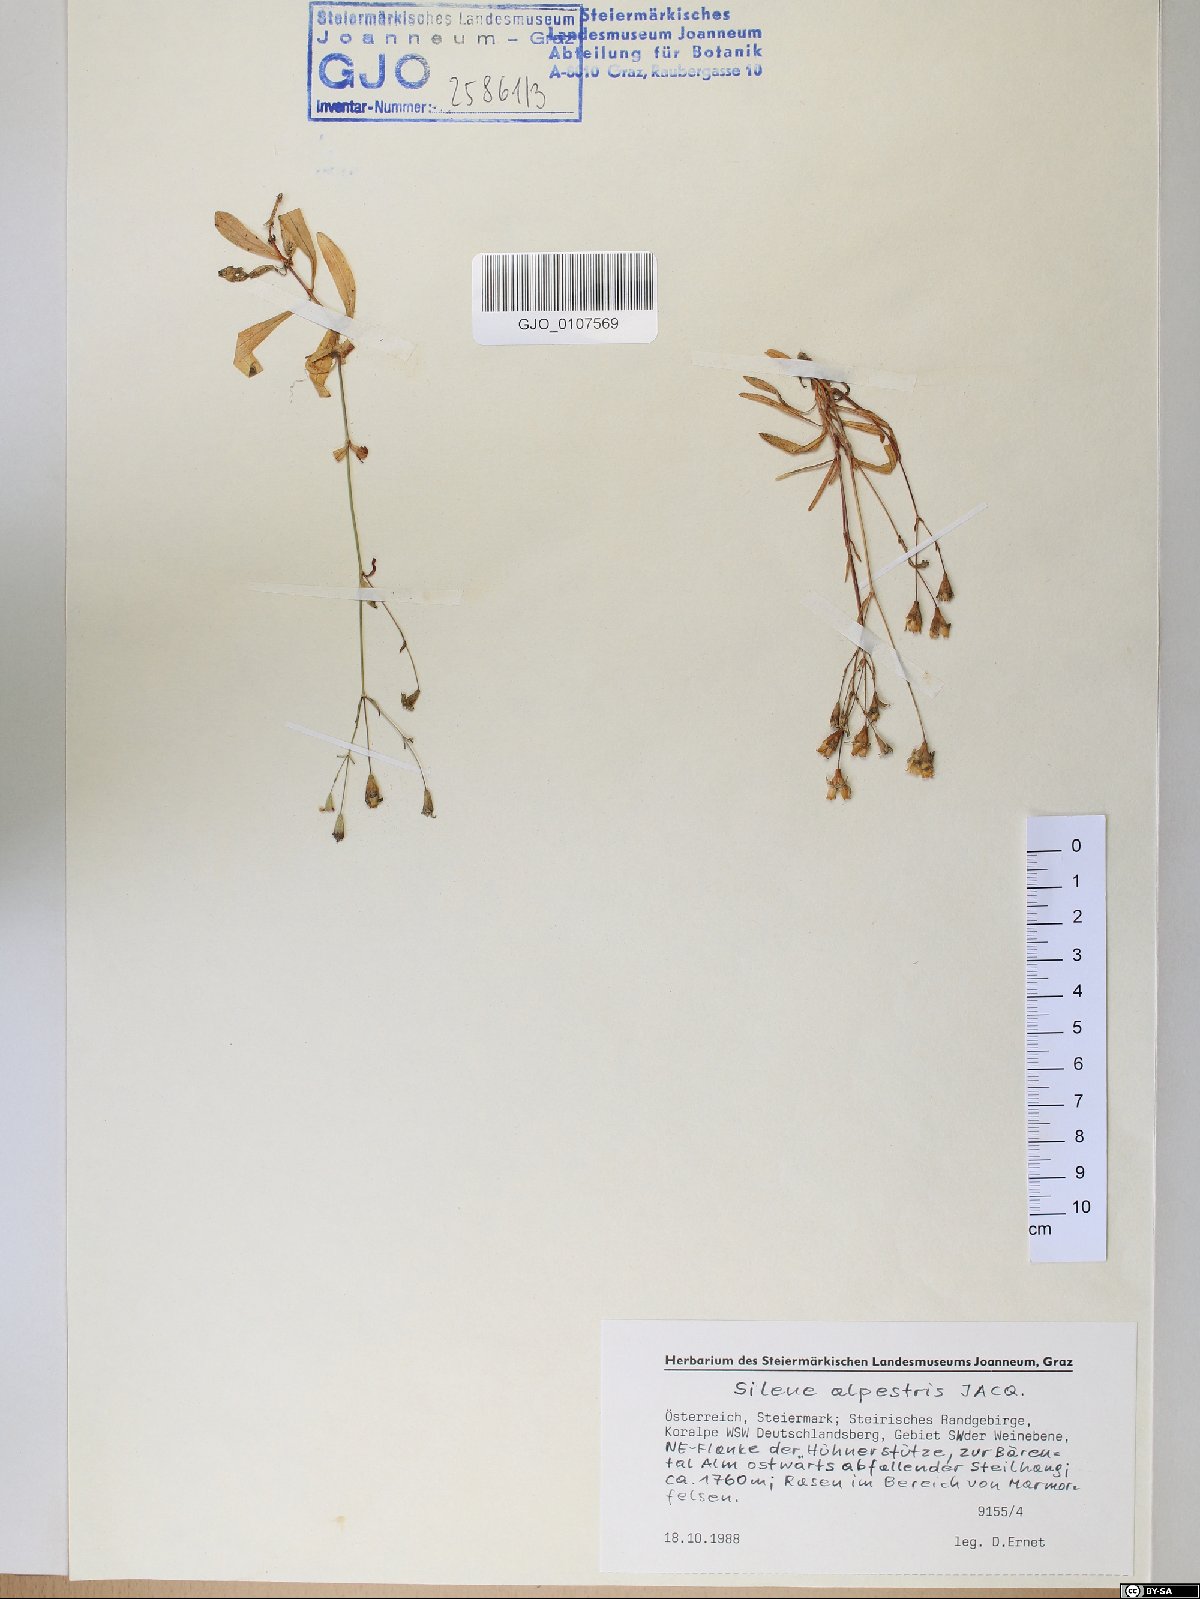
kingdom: Plantae
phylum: Tracheophyta
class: Magnoliopsida
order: Caryophyllales
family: Caryophyllaceae
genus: Heliosperma
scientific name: Heliosperma alpestre
